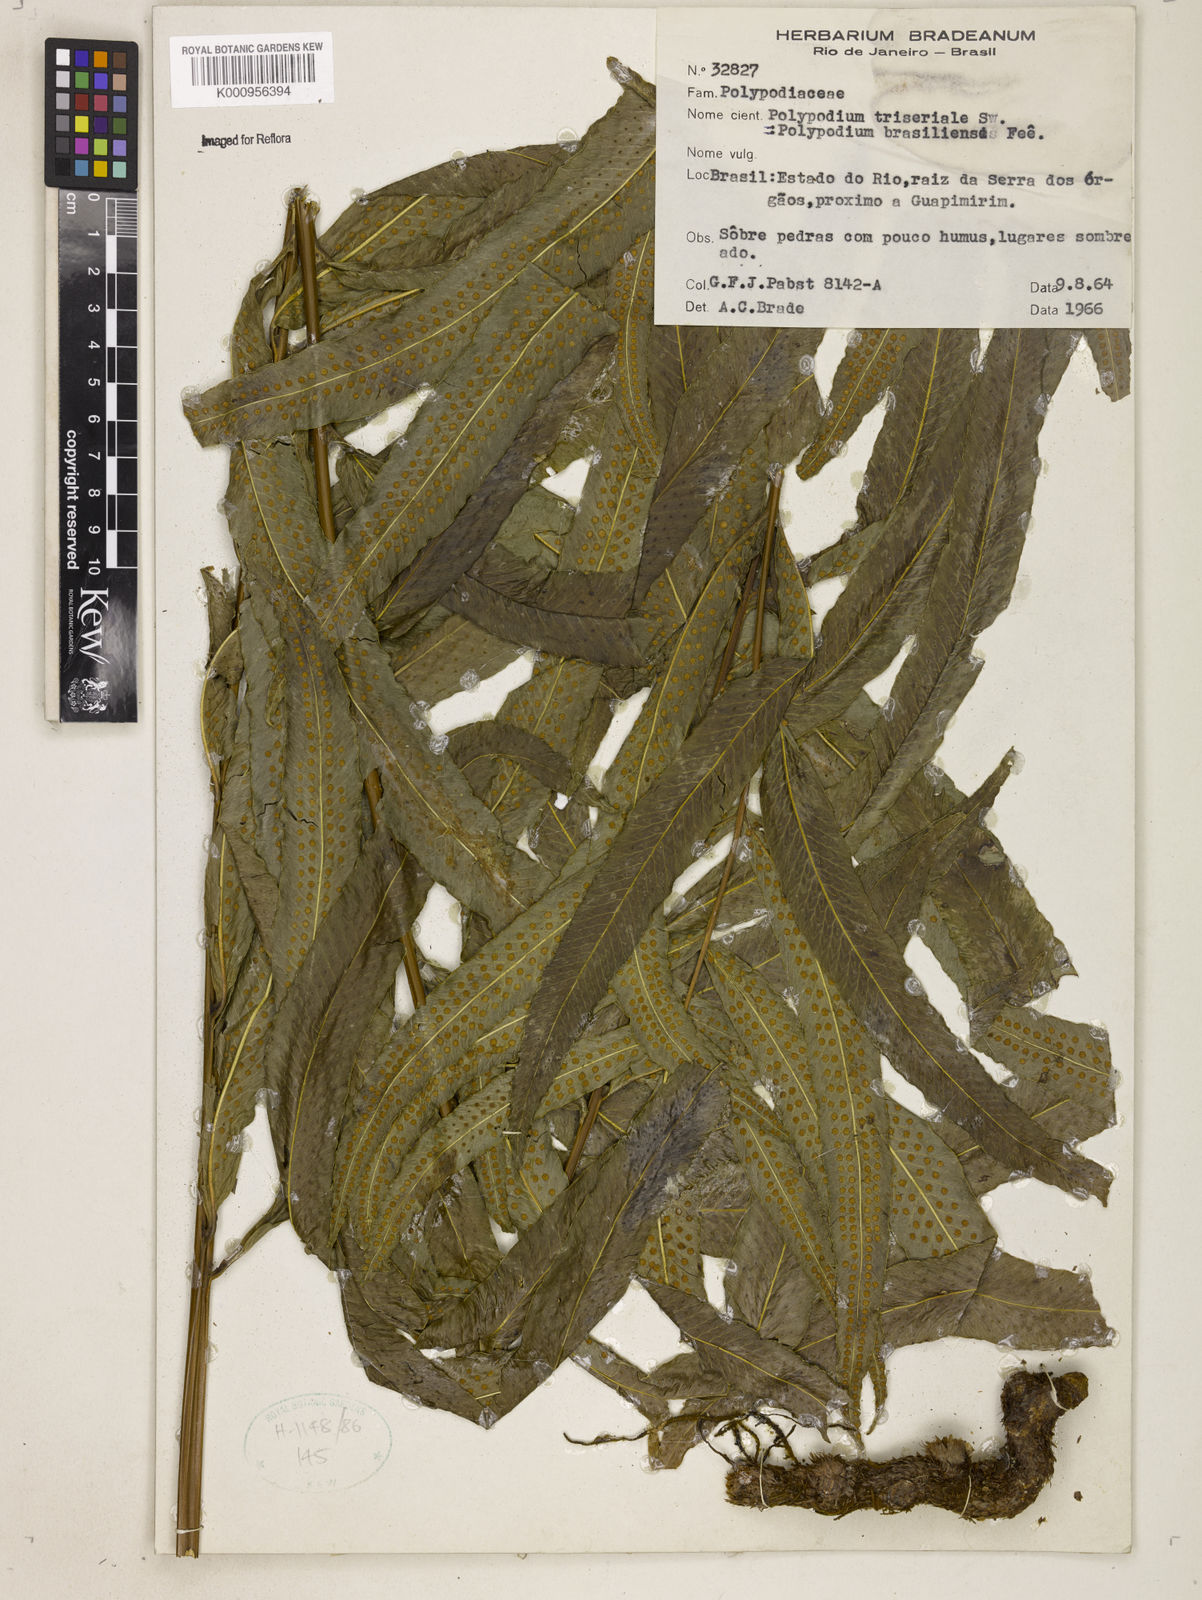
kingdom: Plantae
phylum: Tracheophyta
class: Polypodiopsida
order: Polypodiales
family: Polypodiaceae
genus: Serpocaulon
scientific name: Serpocaulon triseriale
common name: Angle-vein fern
